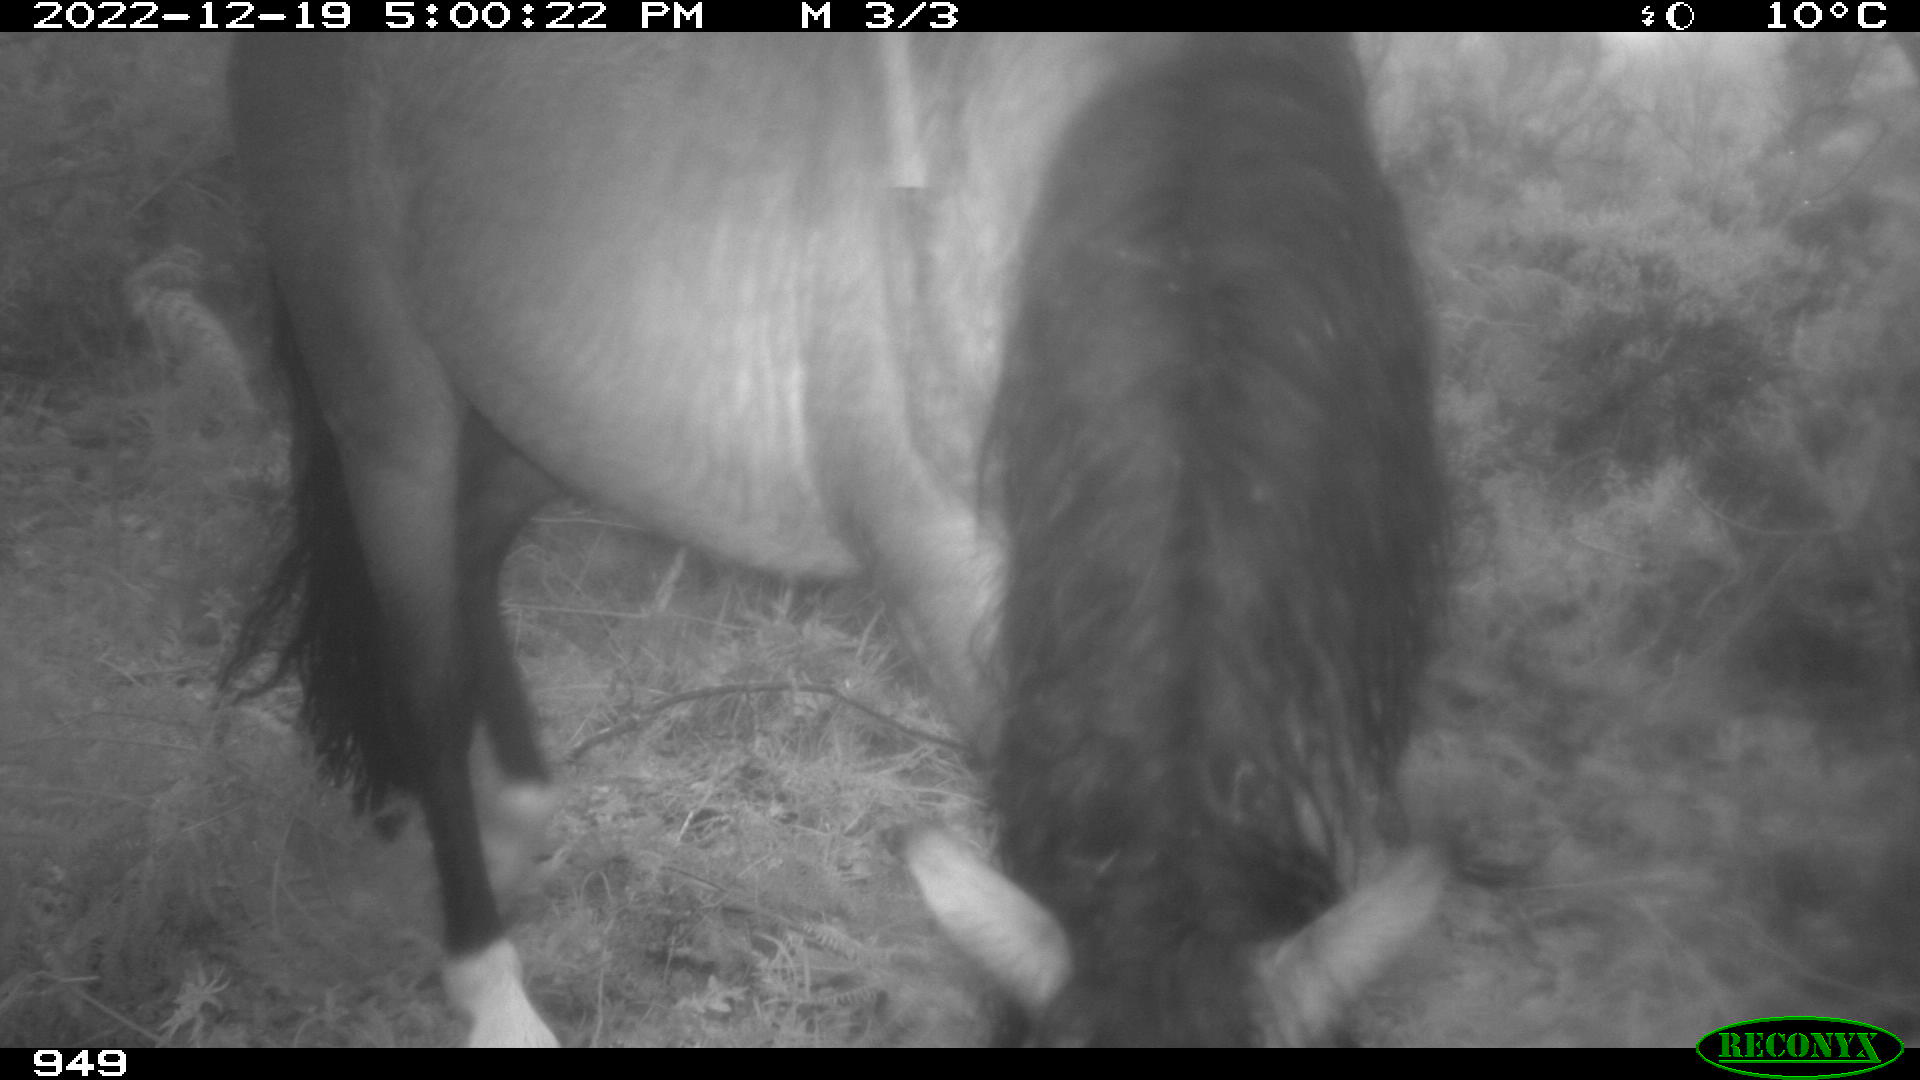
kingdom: Animalia
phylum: Chordata
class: Mammalia
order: Perissodactyla
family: Equidae
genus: Equus
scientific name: Equus caballus
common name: Horse
